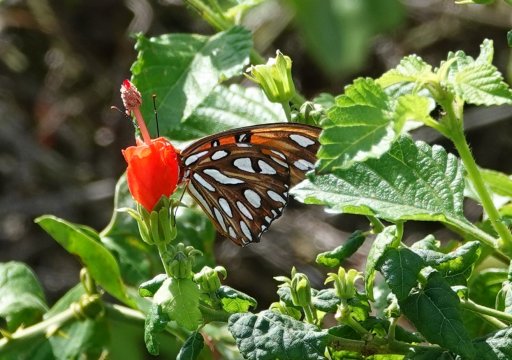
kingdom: Animalia
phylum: Arthropoda
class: Insecta
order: Lepidoptera
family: Nymphalidae
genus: Dione
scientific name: Dione vanillae
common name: Gulf Fritillary
